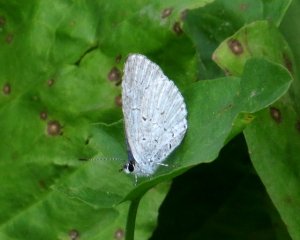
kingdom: Animalia
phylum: Arthropoda
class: Insecta
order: Lepidoptera
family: Lycaenidae
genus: Cyaniris
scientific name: Cyaniris neglecta
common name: Summer Azure
